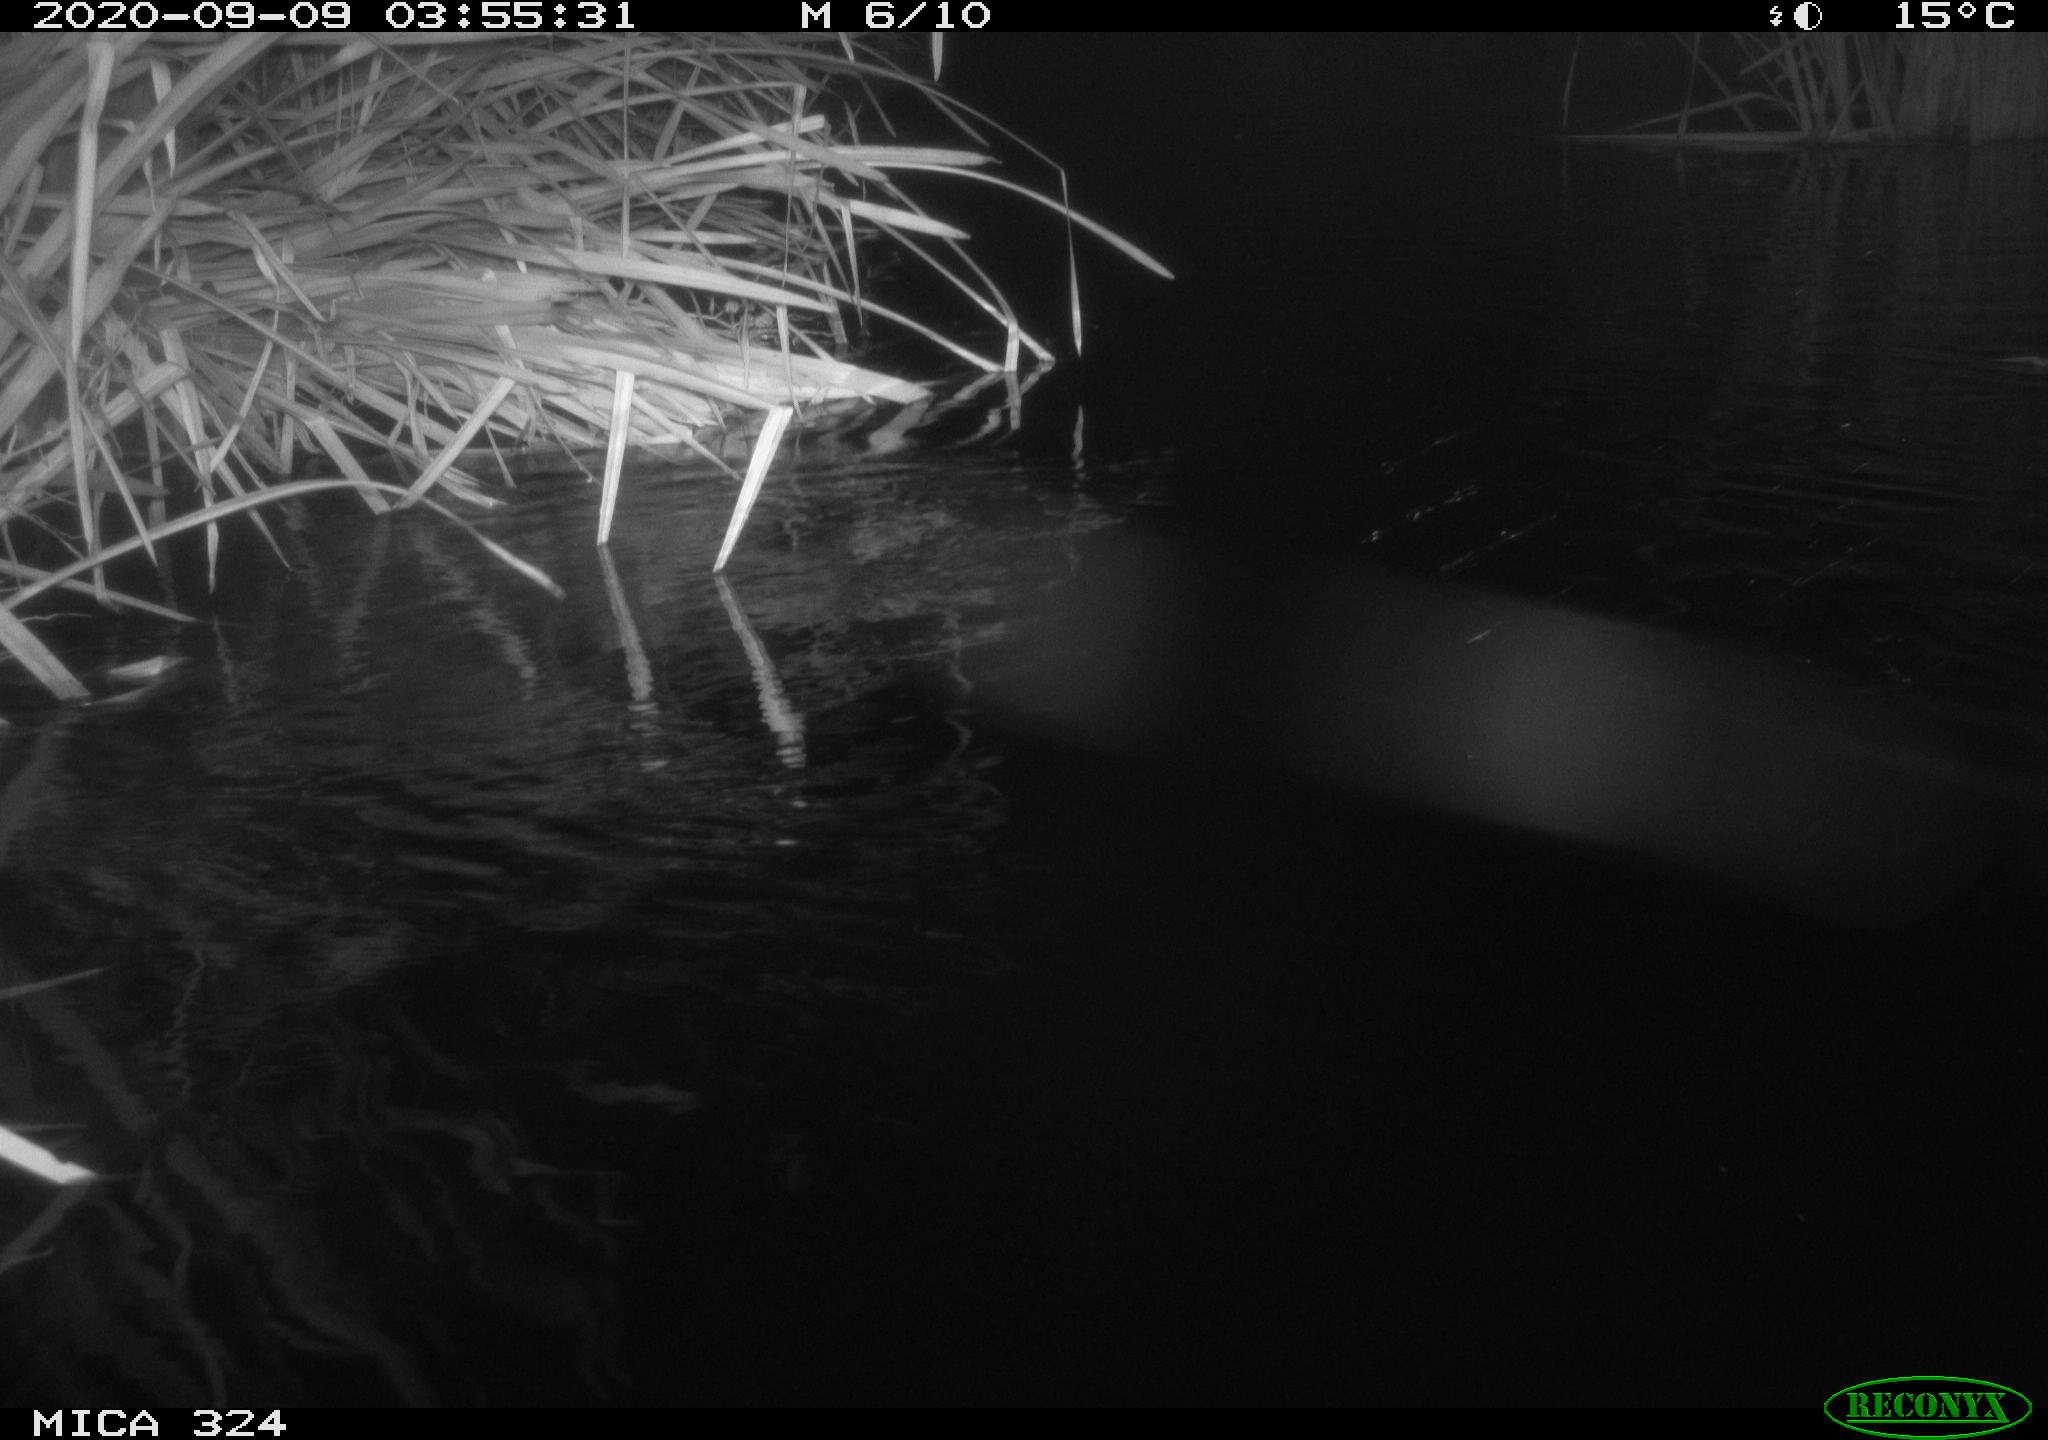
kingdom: Animalia
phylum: Chordata
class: Mammalia
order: Rodentia
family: Cricetidae
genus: Ondatra
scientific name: Ondatra zibethicus
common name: Muskrat
